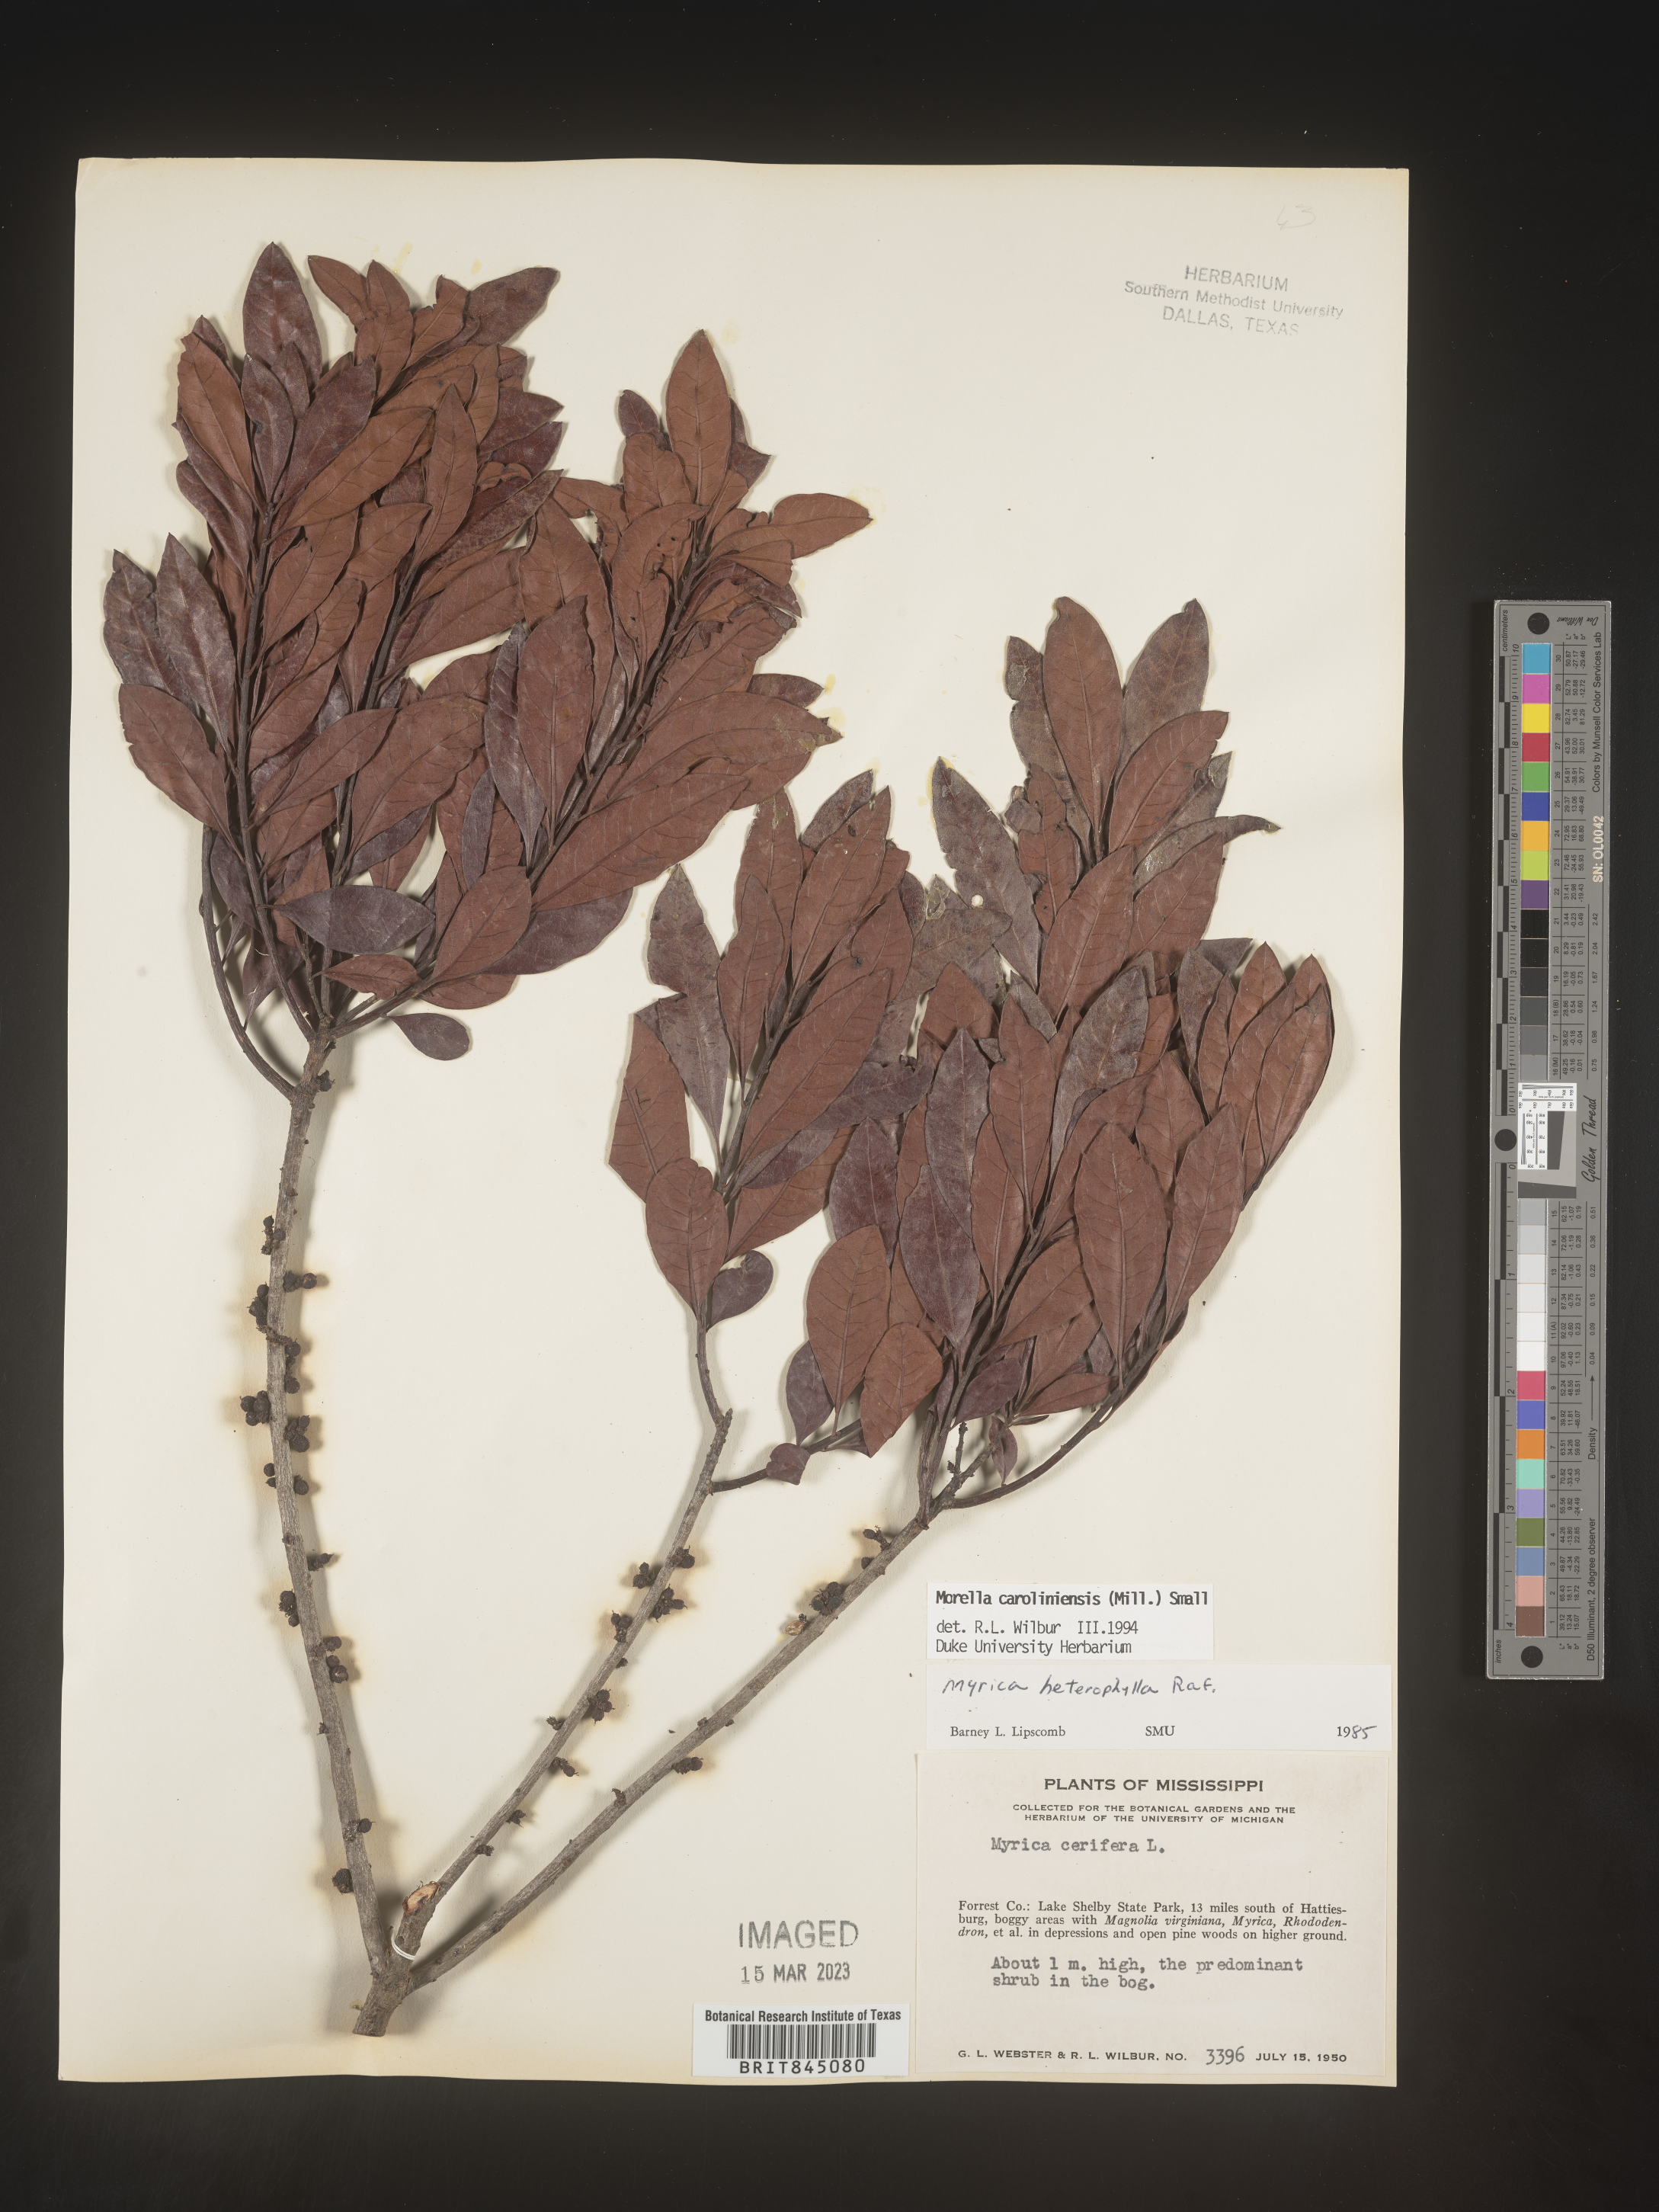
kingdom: Plantae
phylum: Tracheophyta
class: Magnoliopsida
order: Fagales
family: Myricaceae
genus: Morella
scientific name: Morella caroliniensis
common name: Evergreen bayberry
